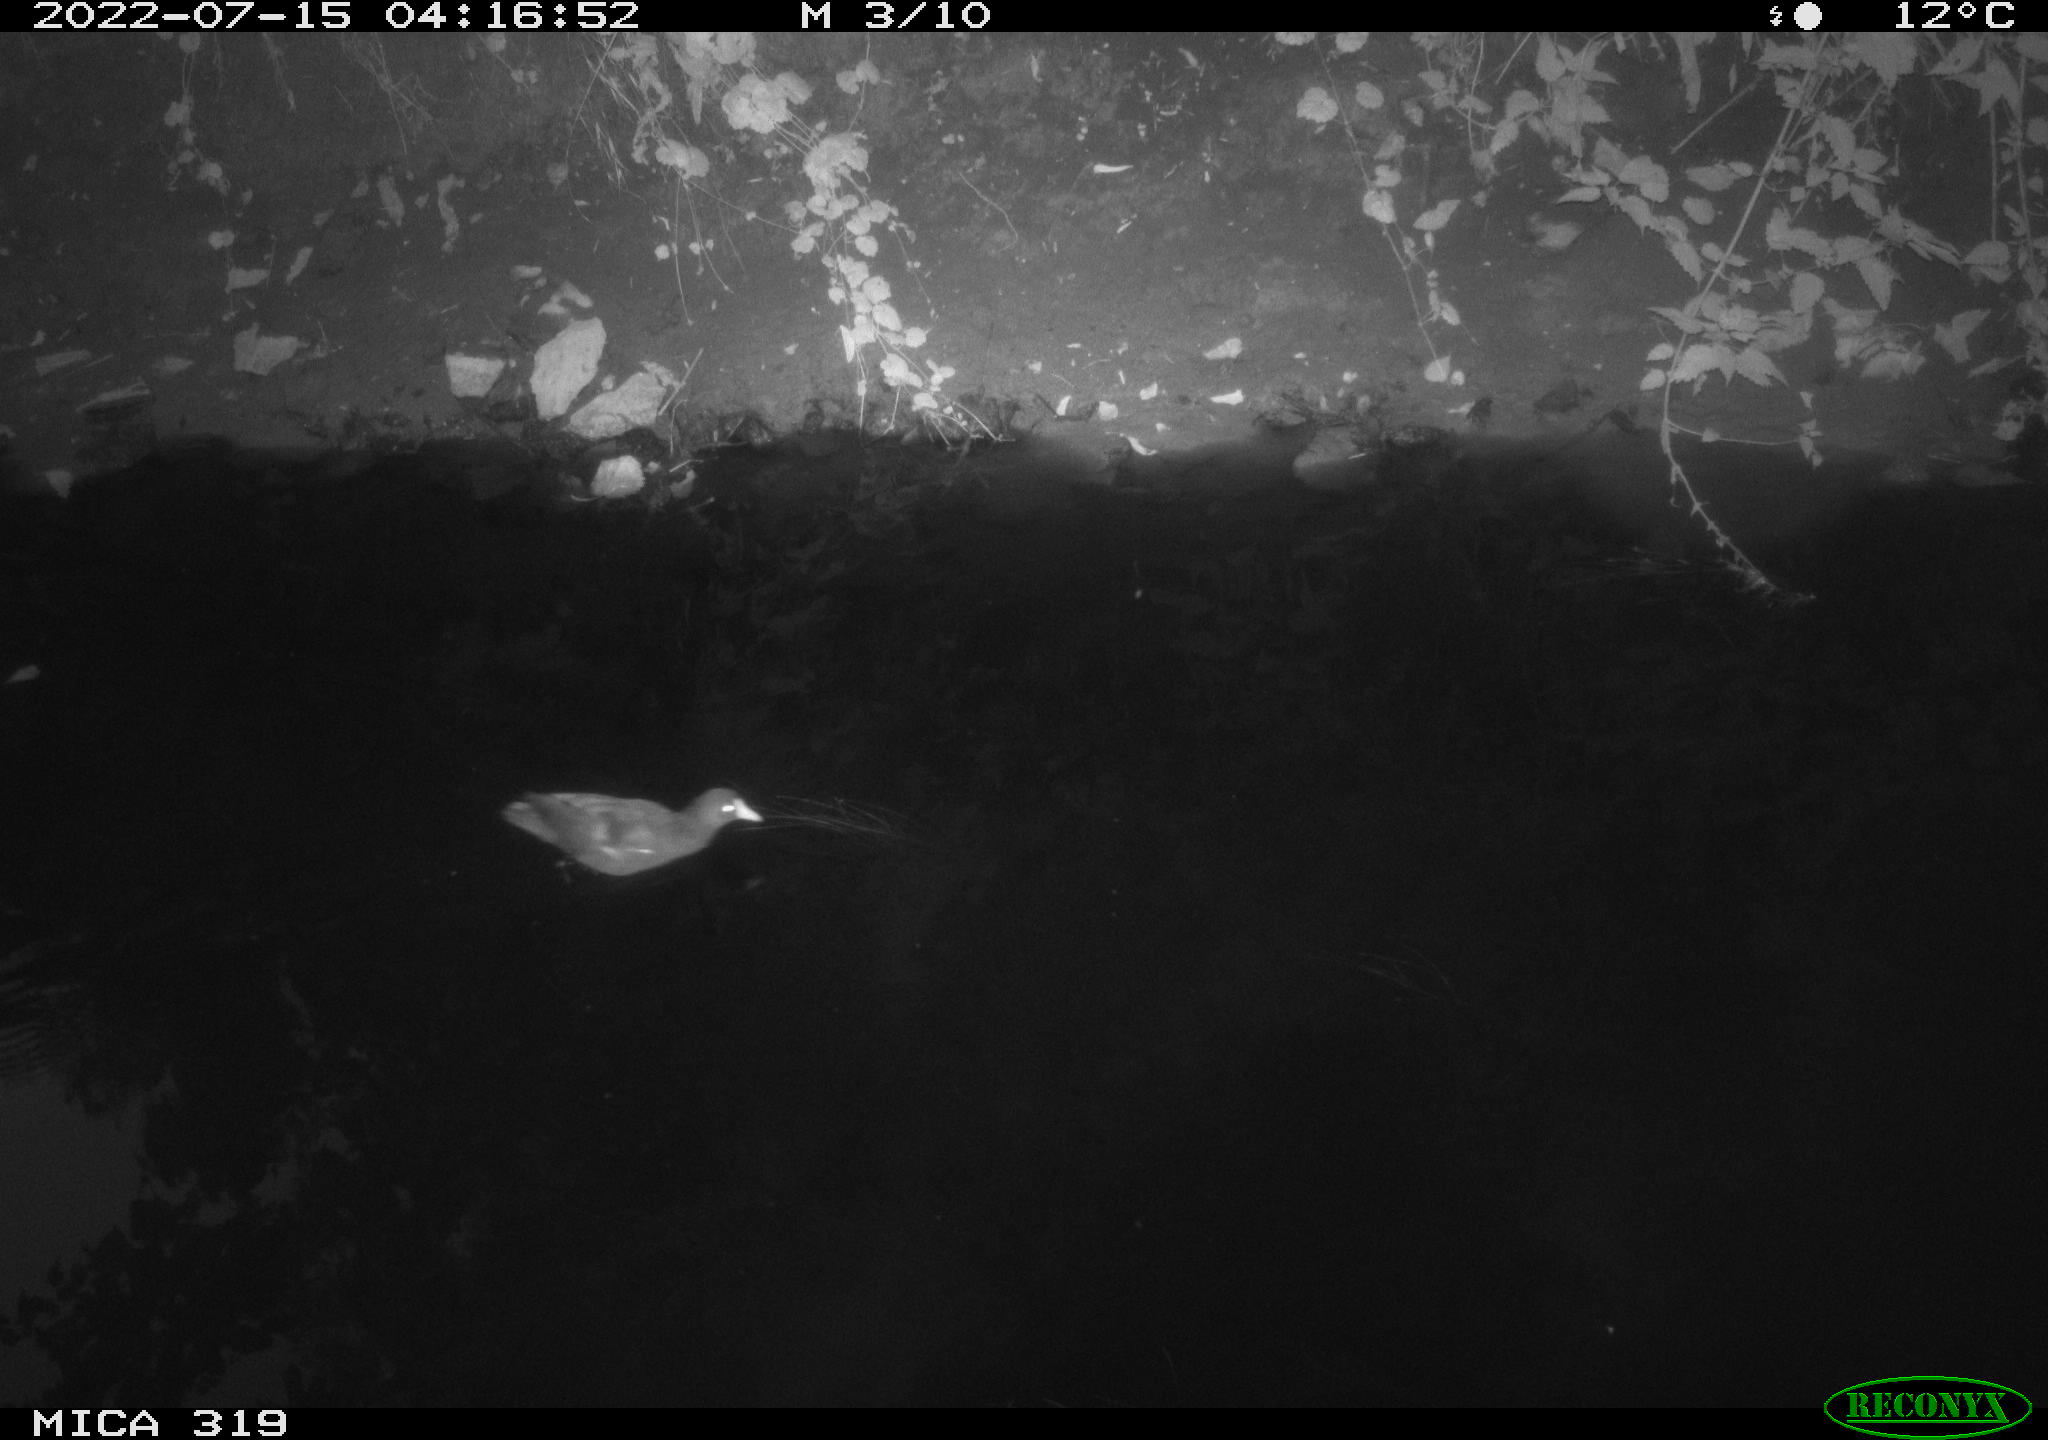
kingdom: Animalia
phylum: Chordata
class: Aves
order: Gruiformes
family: Rallidae
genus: Gallinula
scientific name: Gallinula chloropus
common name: Common moorhen
